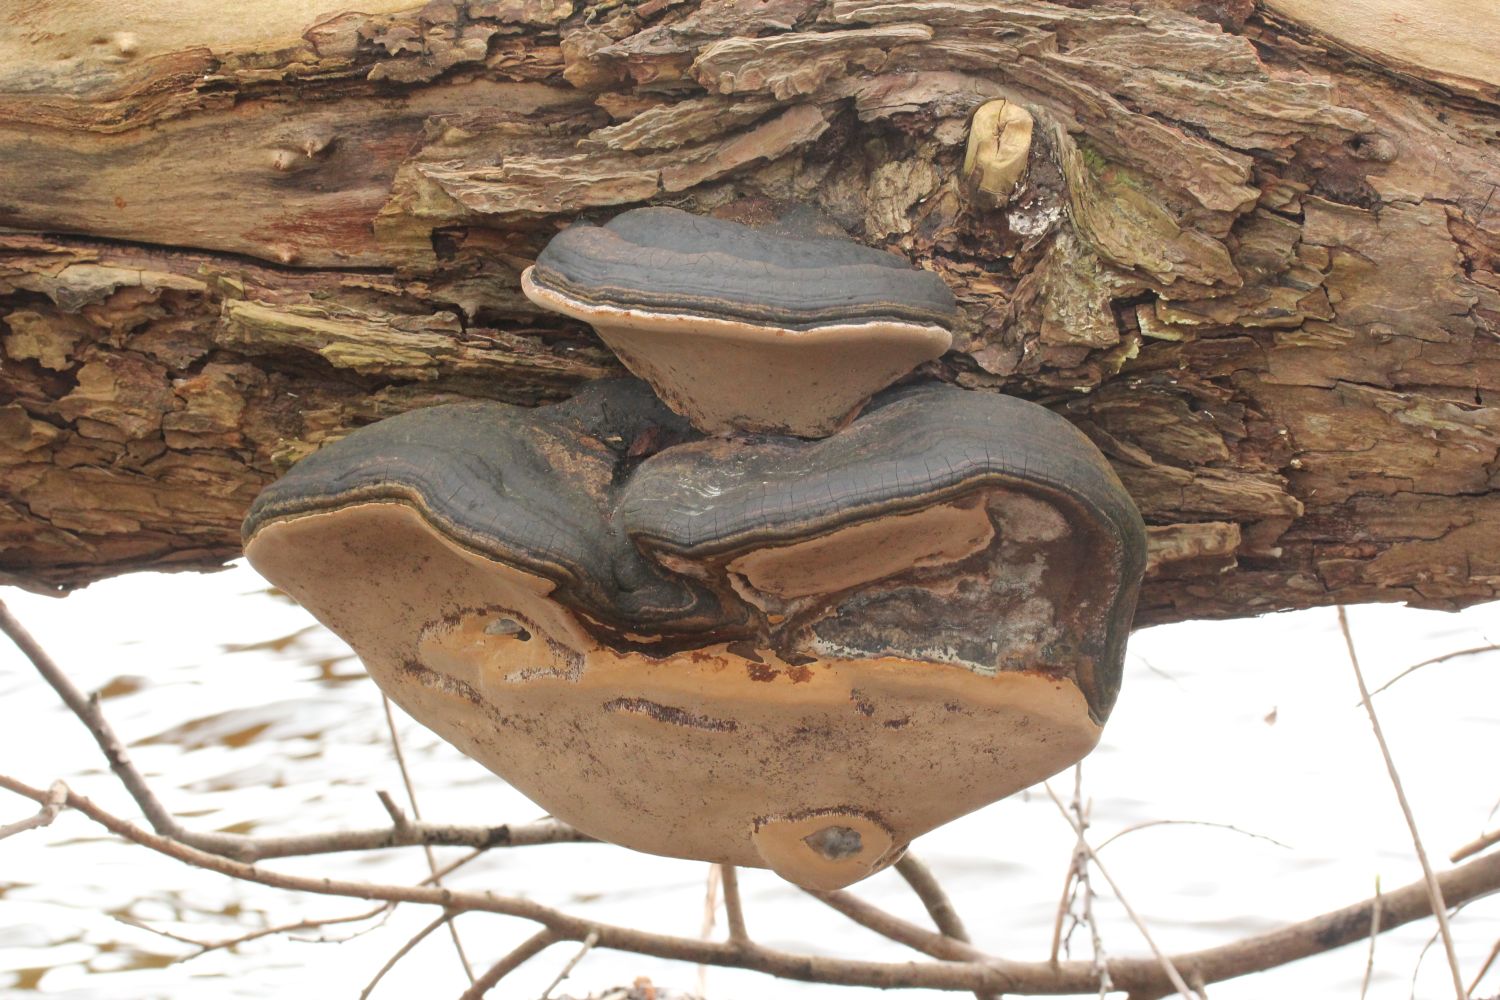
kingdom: Fungi
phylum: Basidiomycota
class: Agaricomycetes
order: Hymenochaetales
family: Hymenochaetaceae
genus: Phellinus
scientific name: Phellinus igniarius
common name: almindelig ildporesvamp
